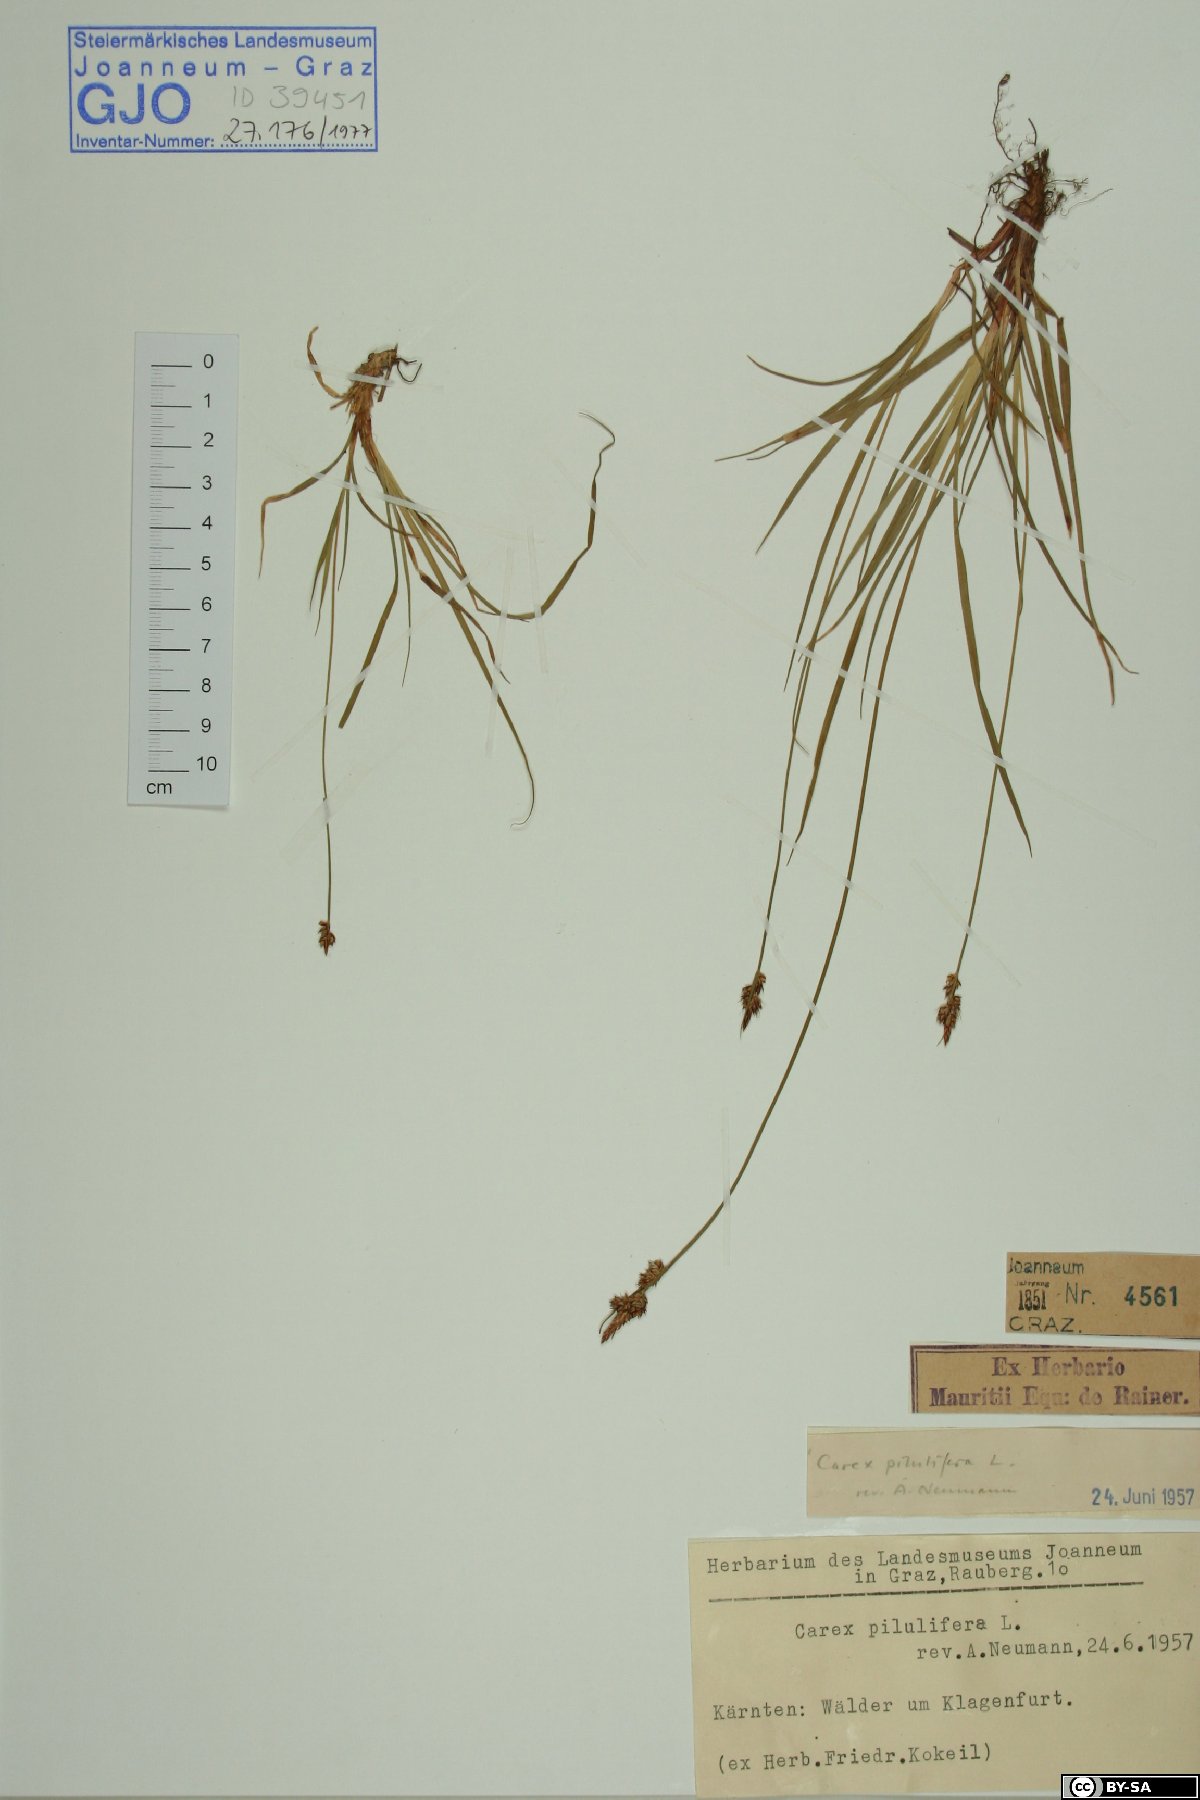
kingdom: Plantae
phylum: Tracheophyta
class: Liliopsida
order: Poales
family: Cyperaceae
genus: Carex
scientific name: Carex pilulifera
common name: Pill sedge
